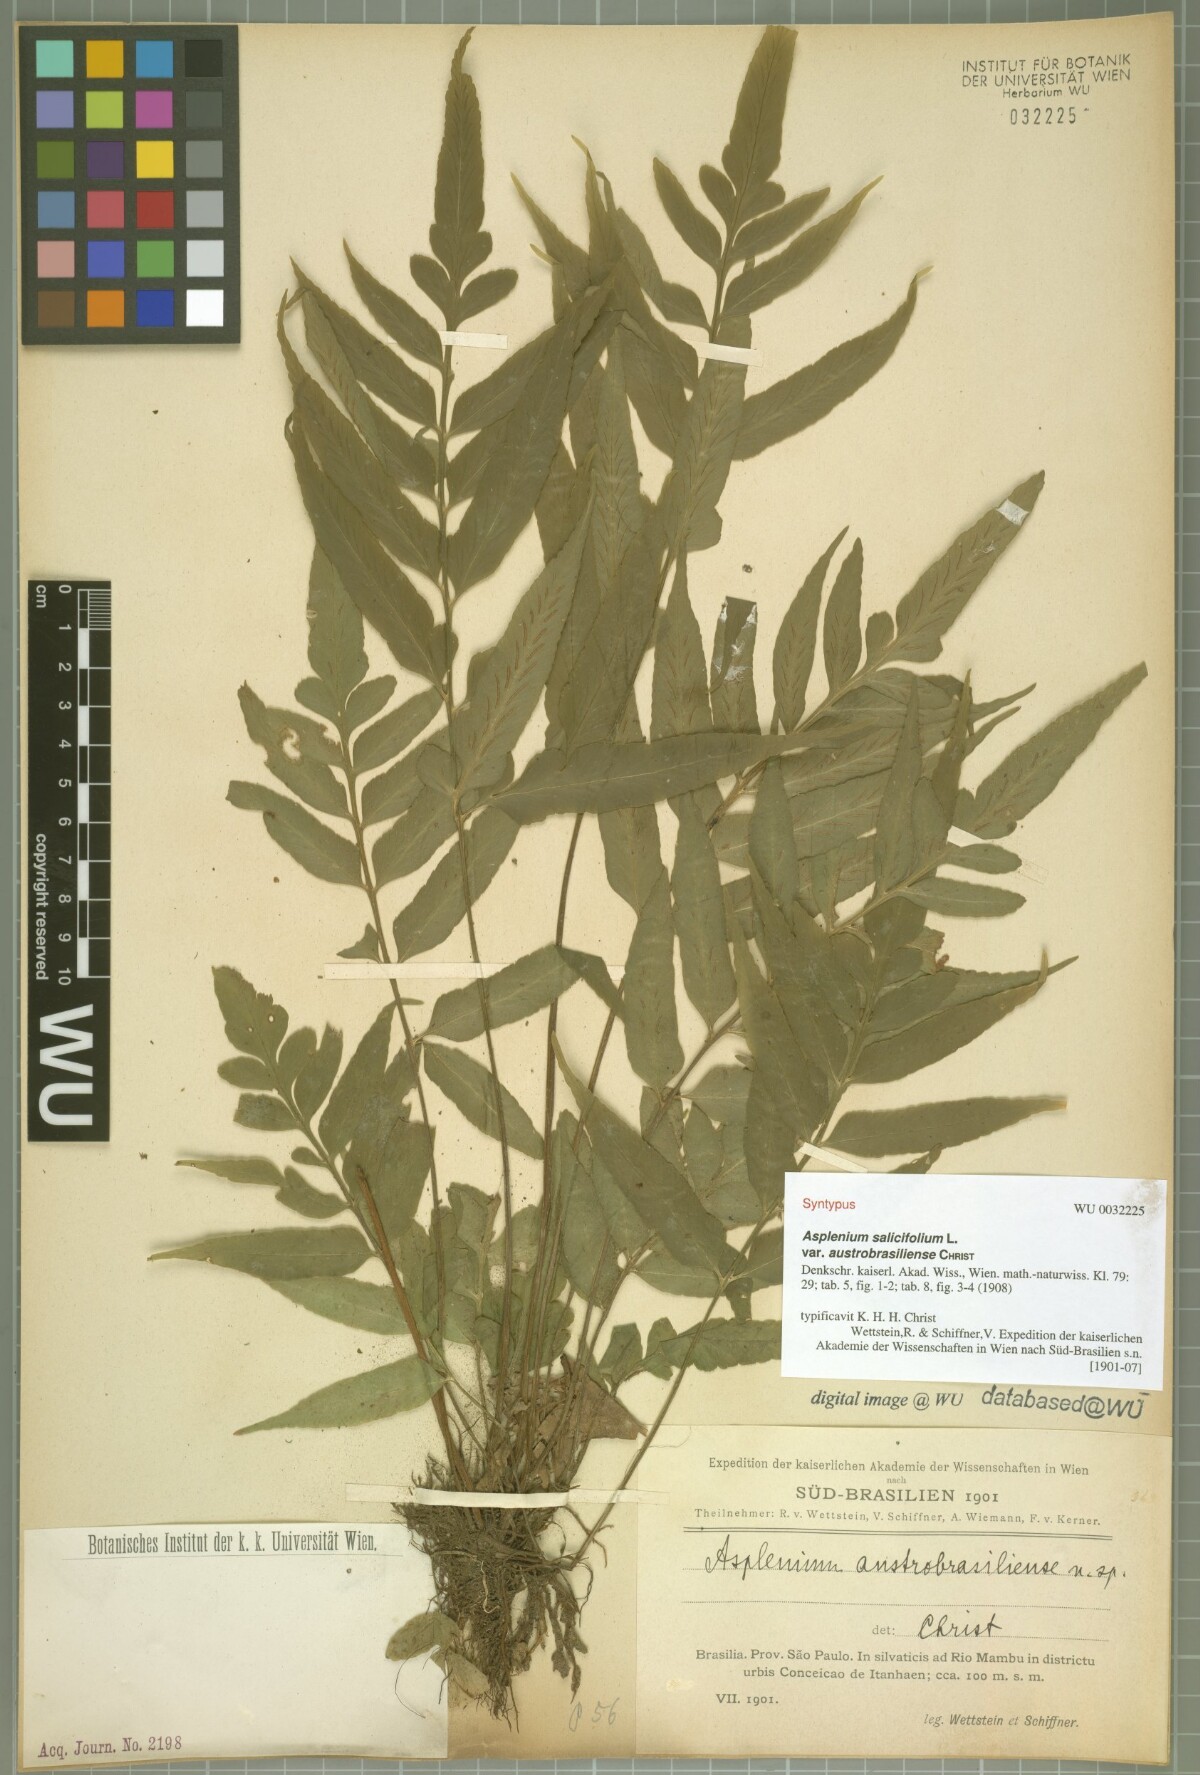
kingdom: Plantae
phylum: Tracheophyta
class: Polypodiopsida
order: Polypodiales
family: Aspleniaceae
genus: Asplenium
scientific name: Asplenium austrobrasiliense
